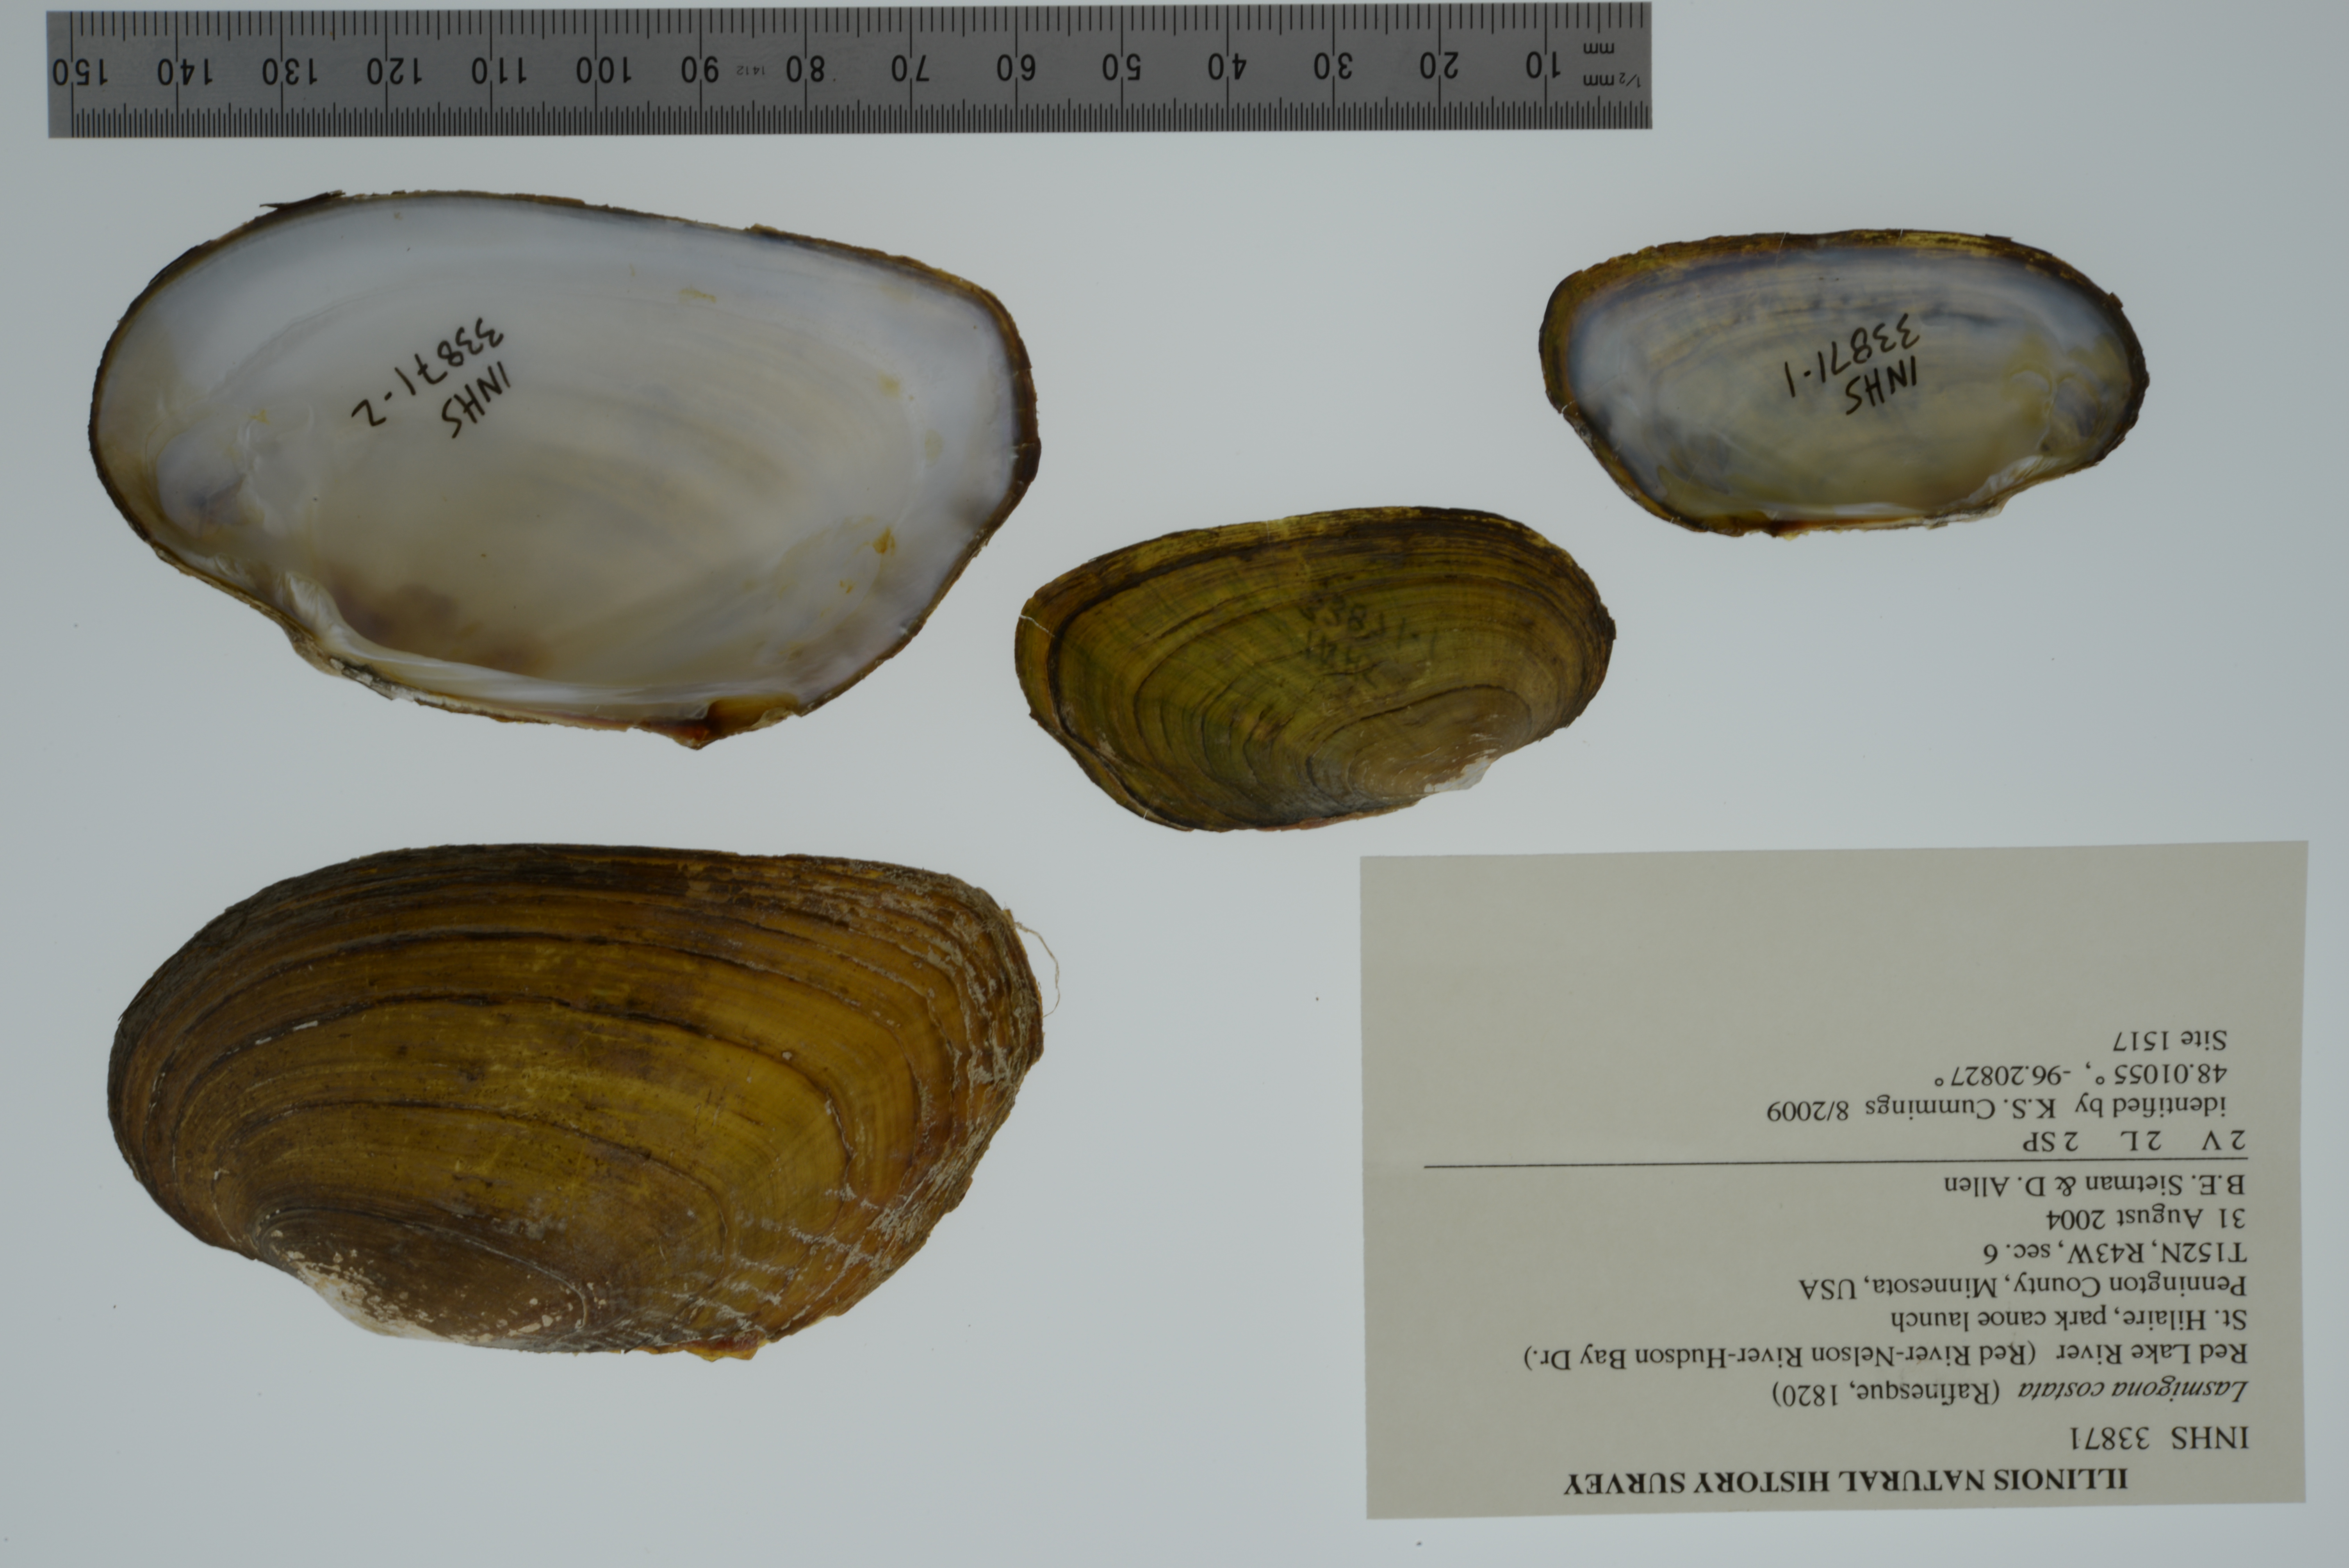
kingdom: Animalia
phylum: Mollusca
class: Bivalvia
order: Unionida
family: Unionidae
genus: Lasmigona
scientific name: Lasmigona costata
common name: Flutedshell
